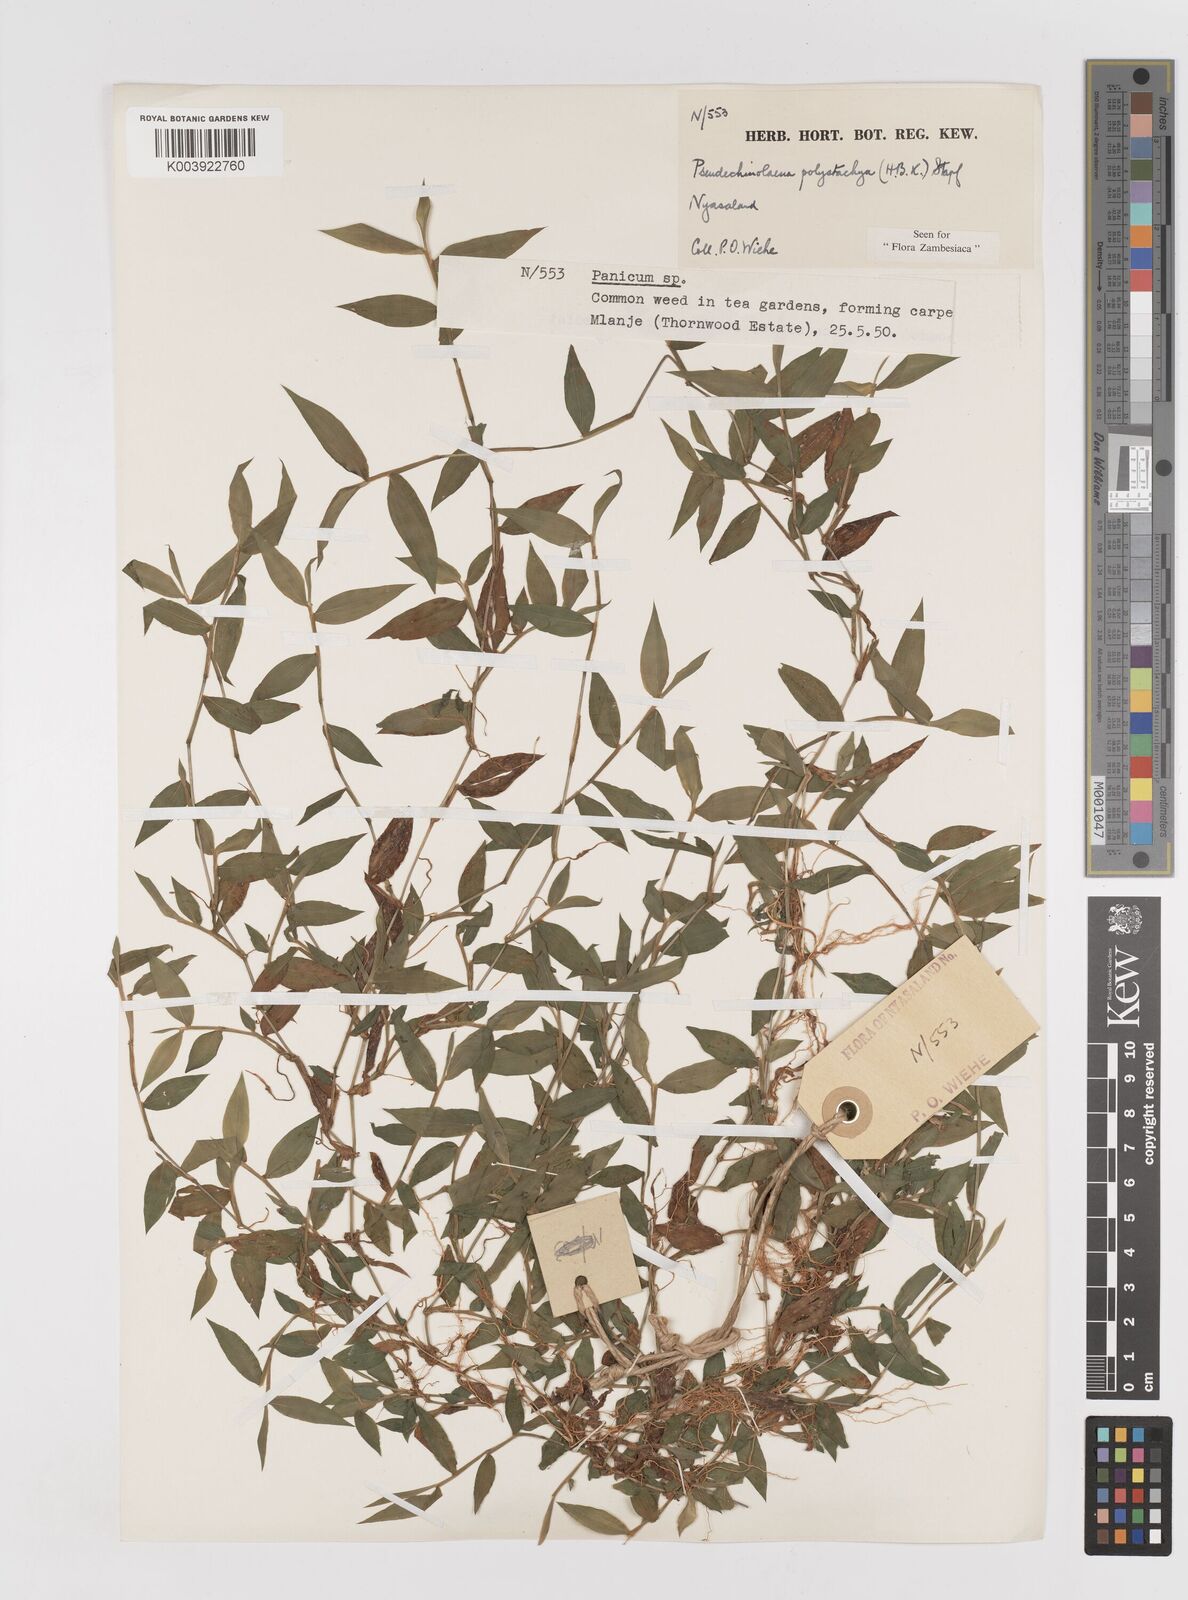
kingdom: Plantae
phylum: Tracheophyta
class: Liliopsida
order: Poales
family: Poaceae
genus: Pseudechinolaena
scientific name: Pseudechinolaena polystachya
